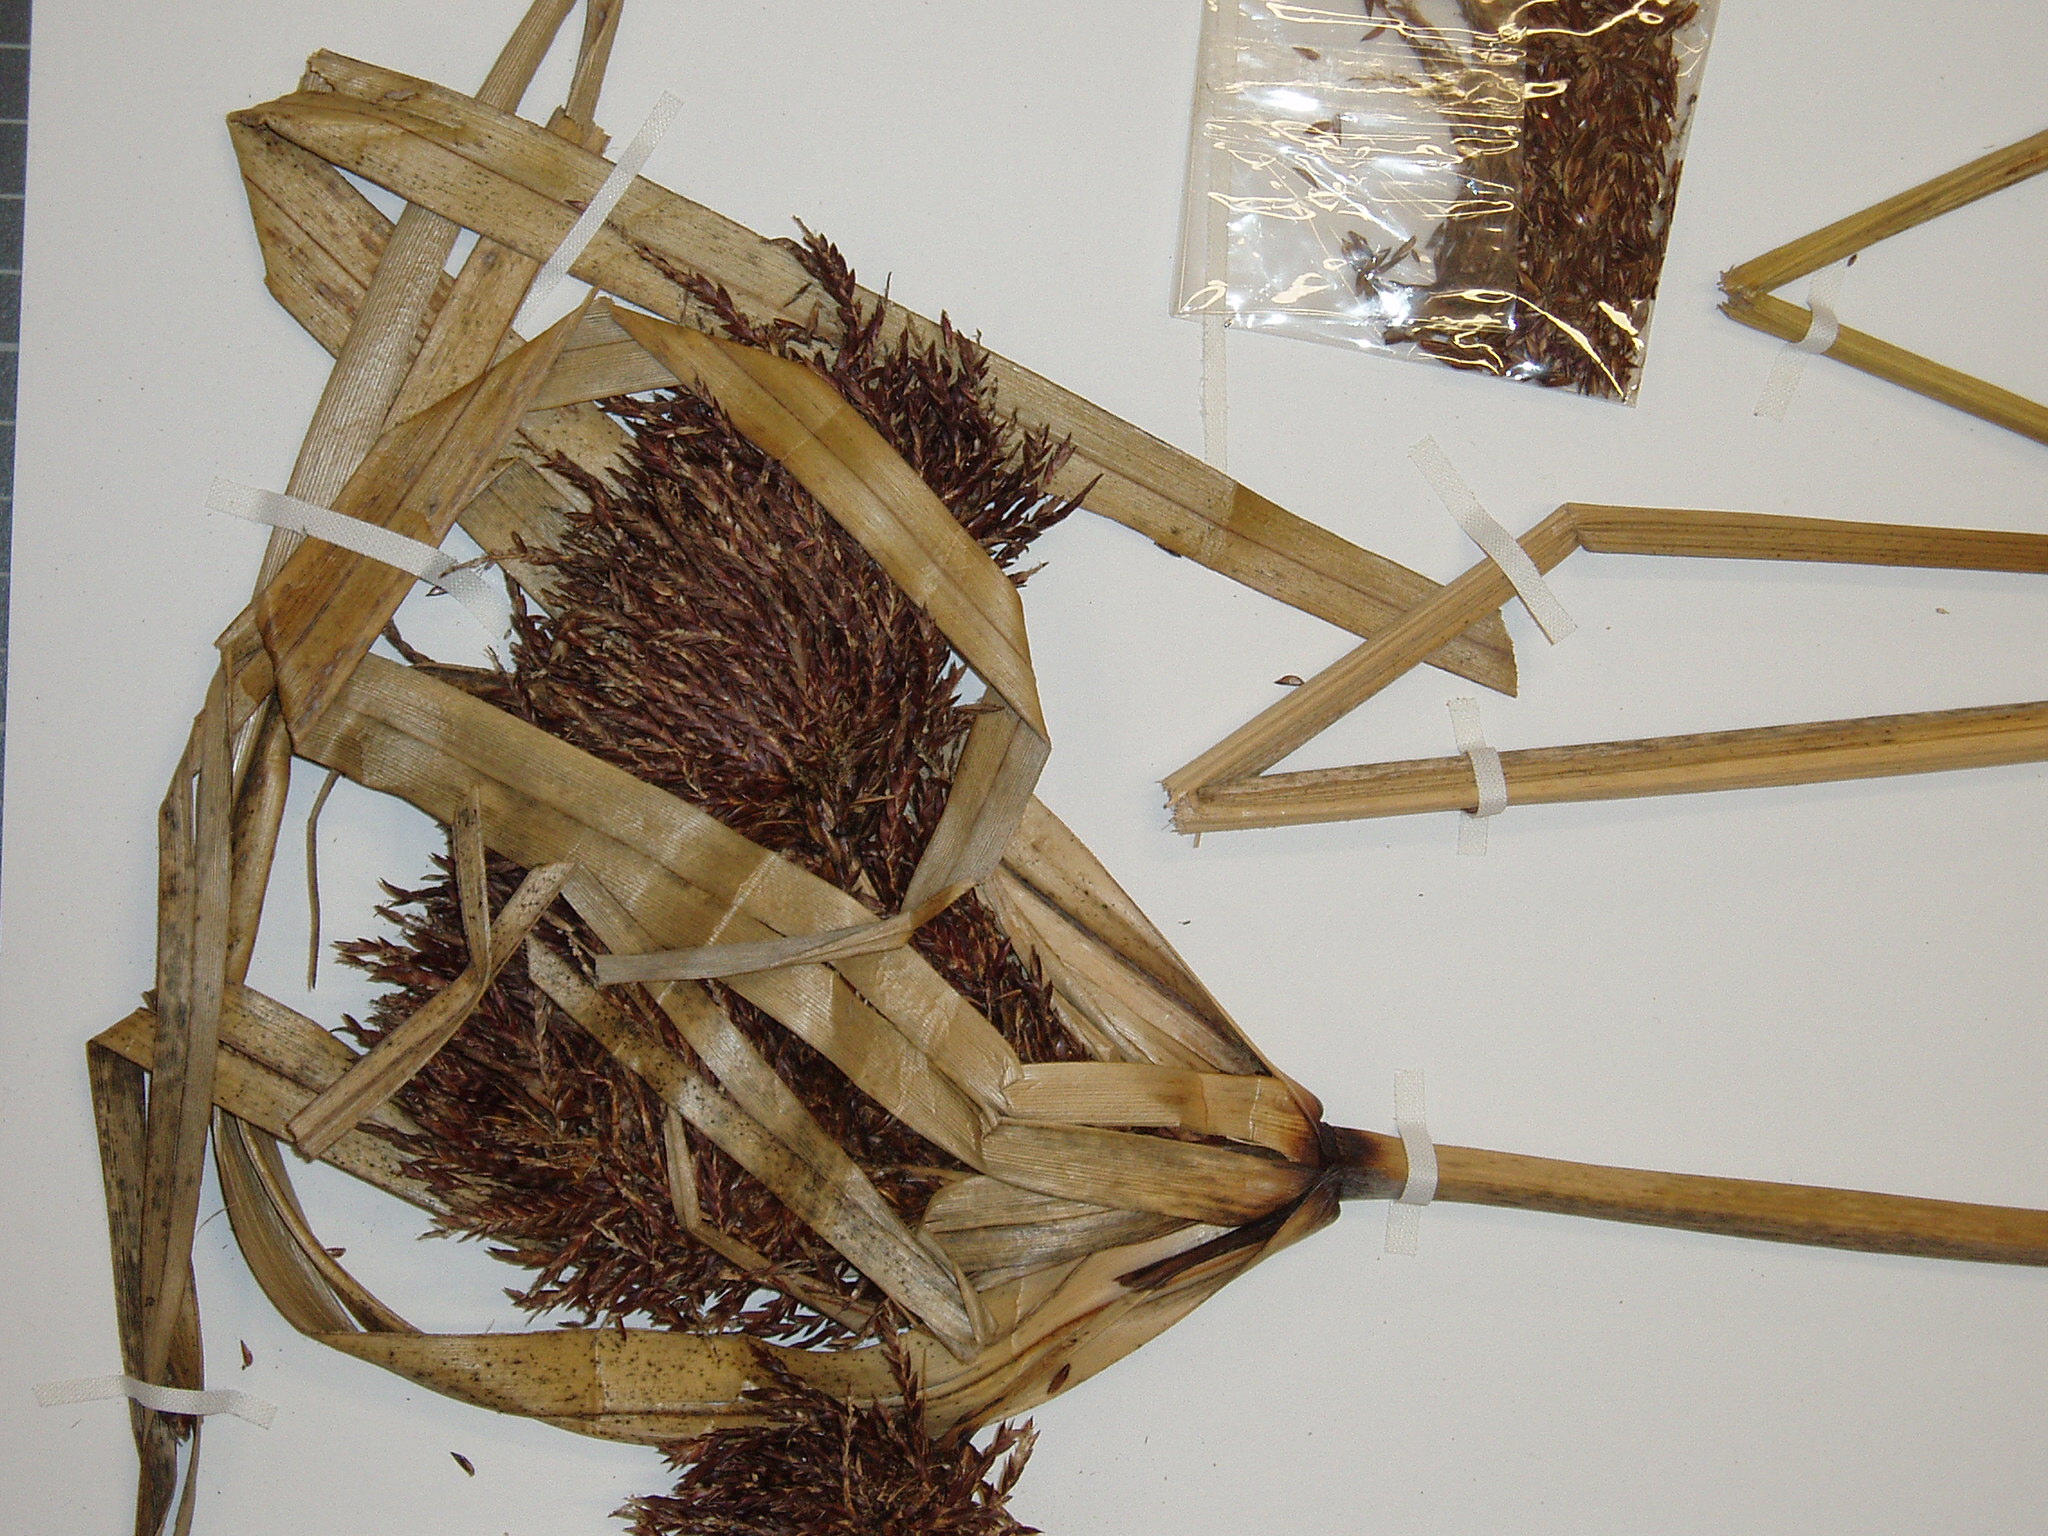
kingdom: Plantae
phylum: Tracheophyta
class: Liliopsida
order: Poales
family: Cyperaceae
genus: Cyperus
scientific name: Cyperus ustulatus
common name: Giant umbrella-sedge
